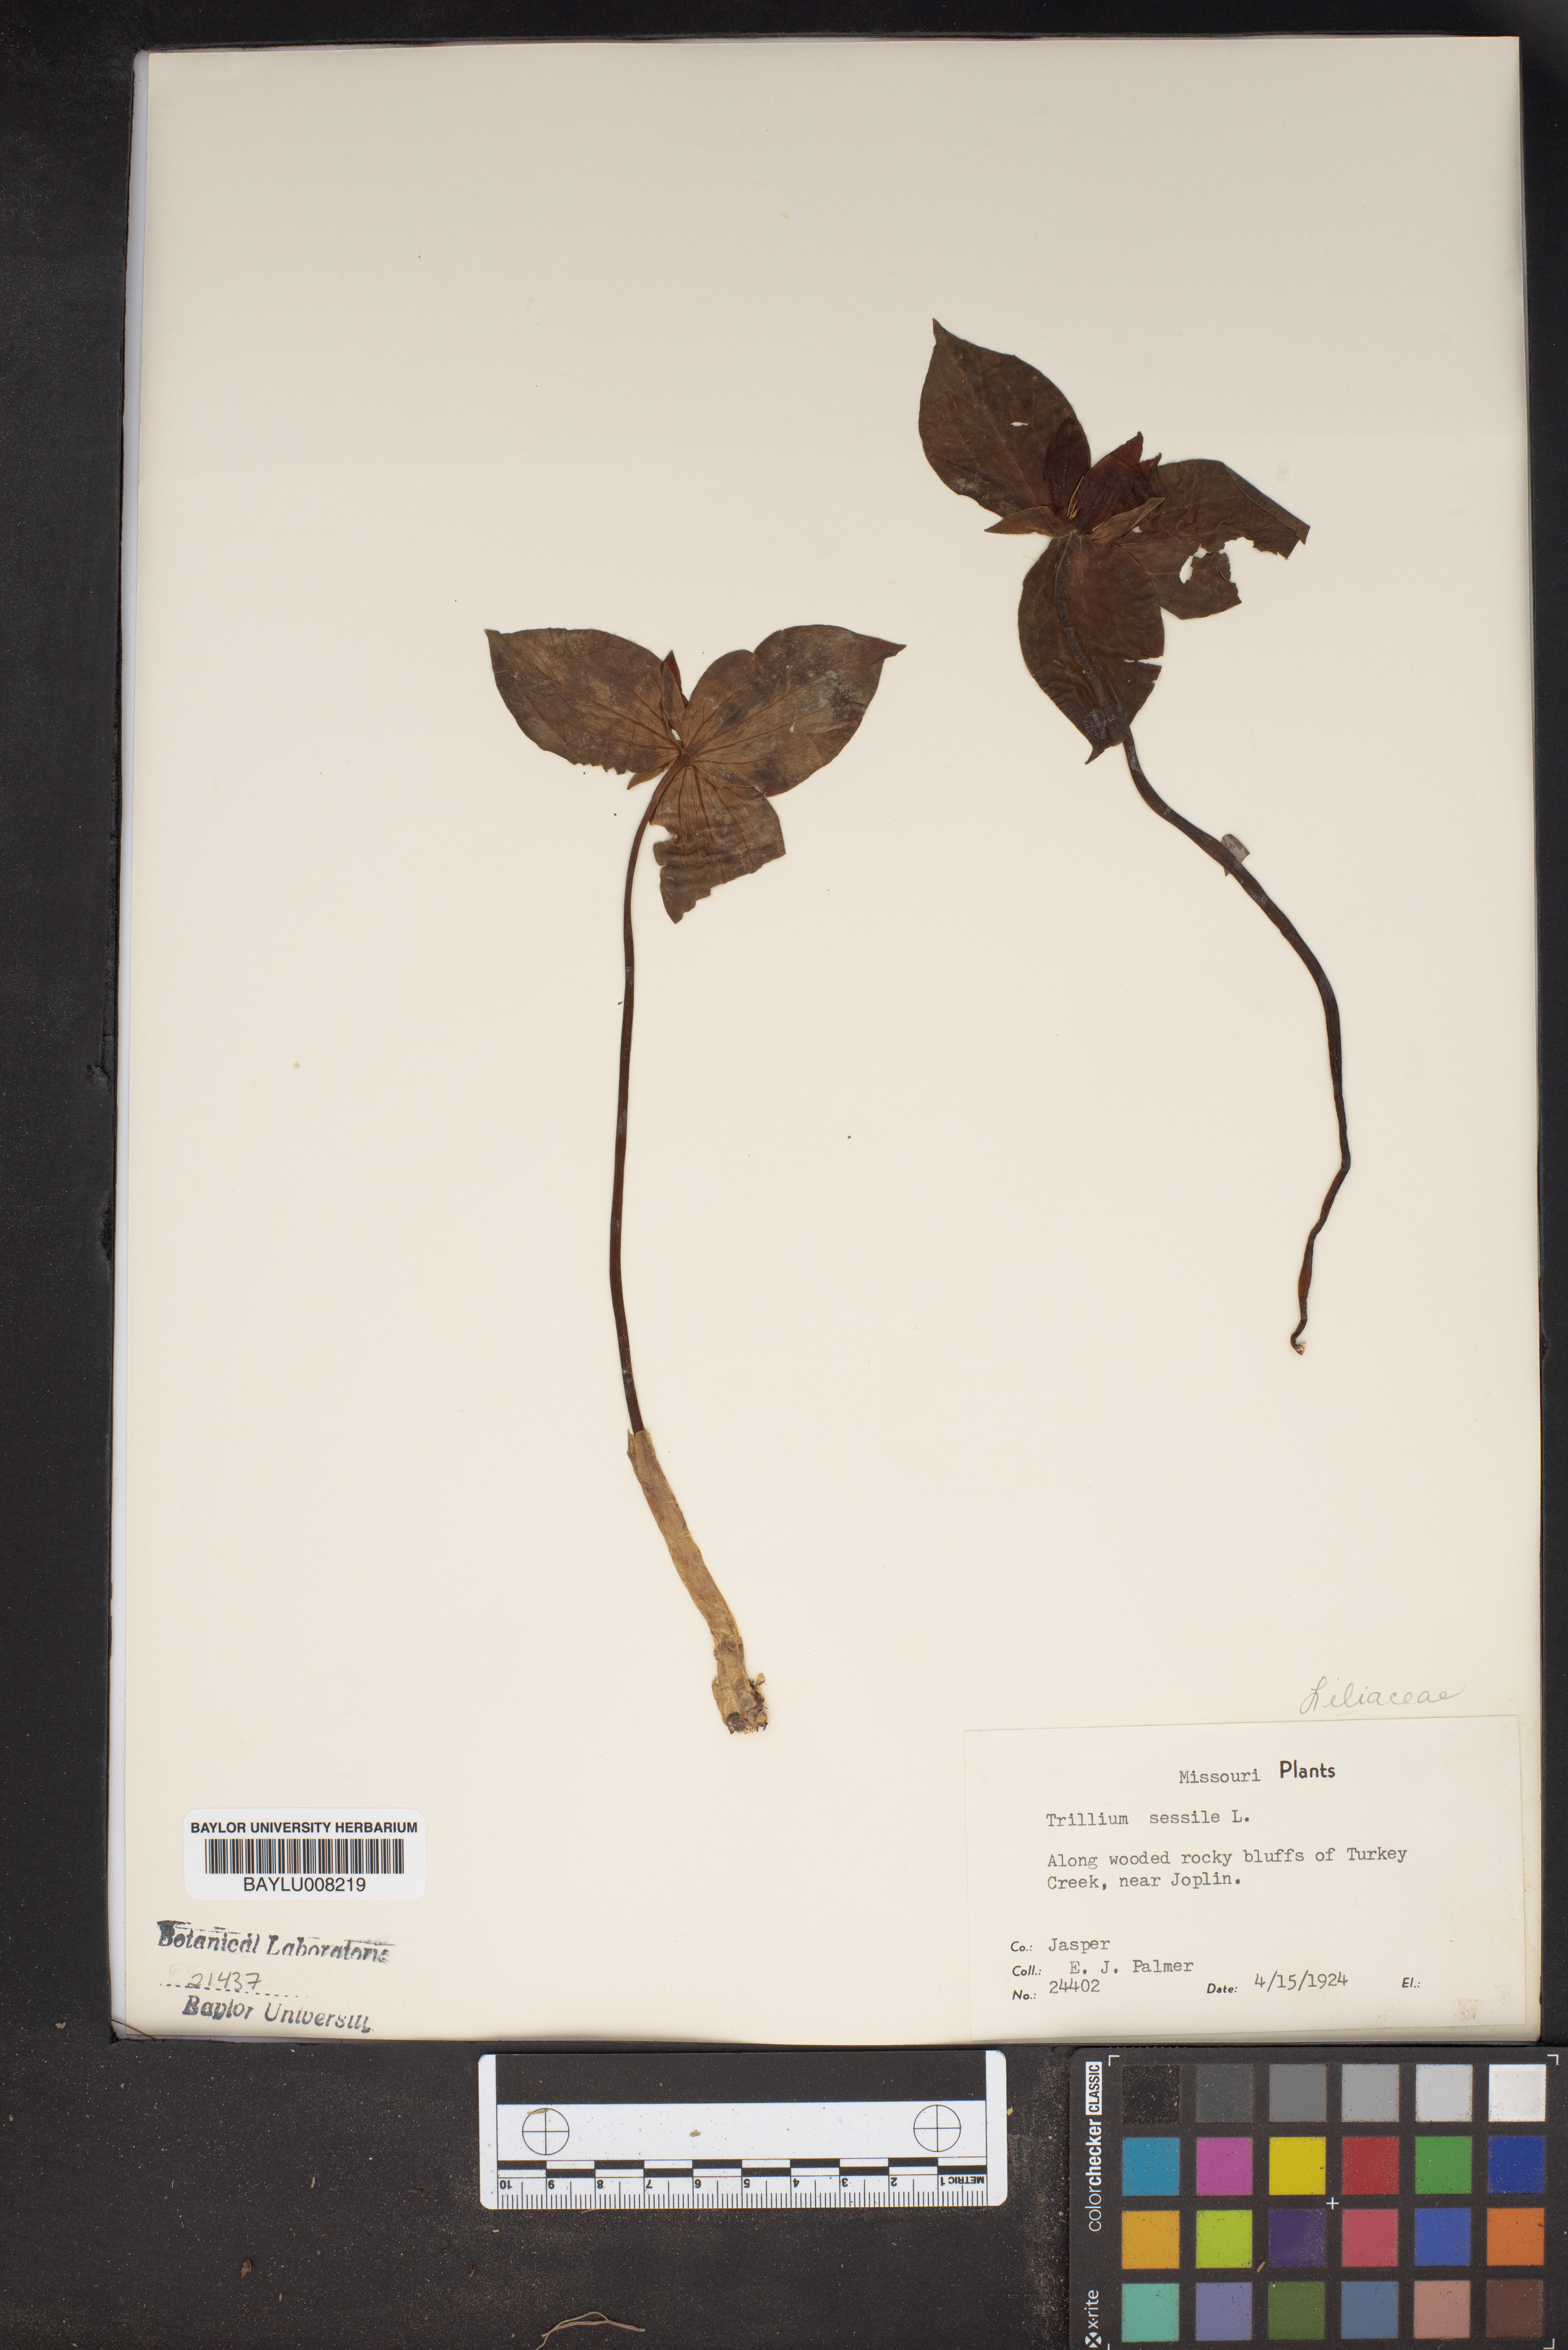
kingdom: Plantae
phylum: Tracheophyta
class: Liliopsida
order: Liliales
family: Melanthiaceae
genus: Trillium
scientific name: Trillium sessile
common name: Sessile trillium
